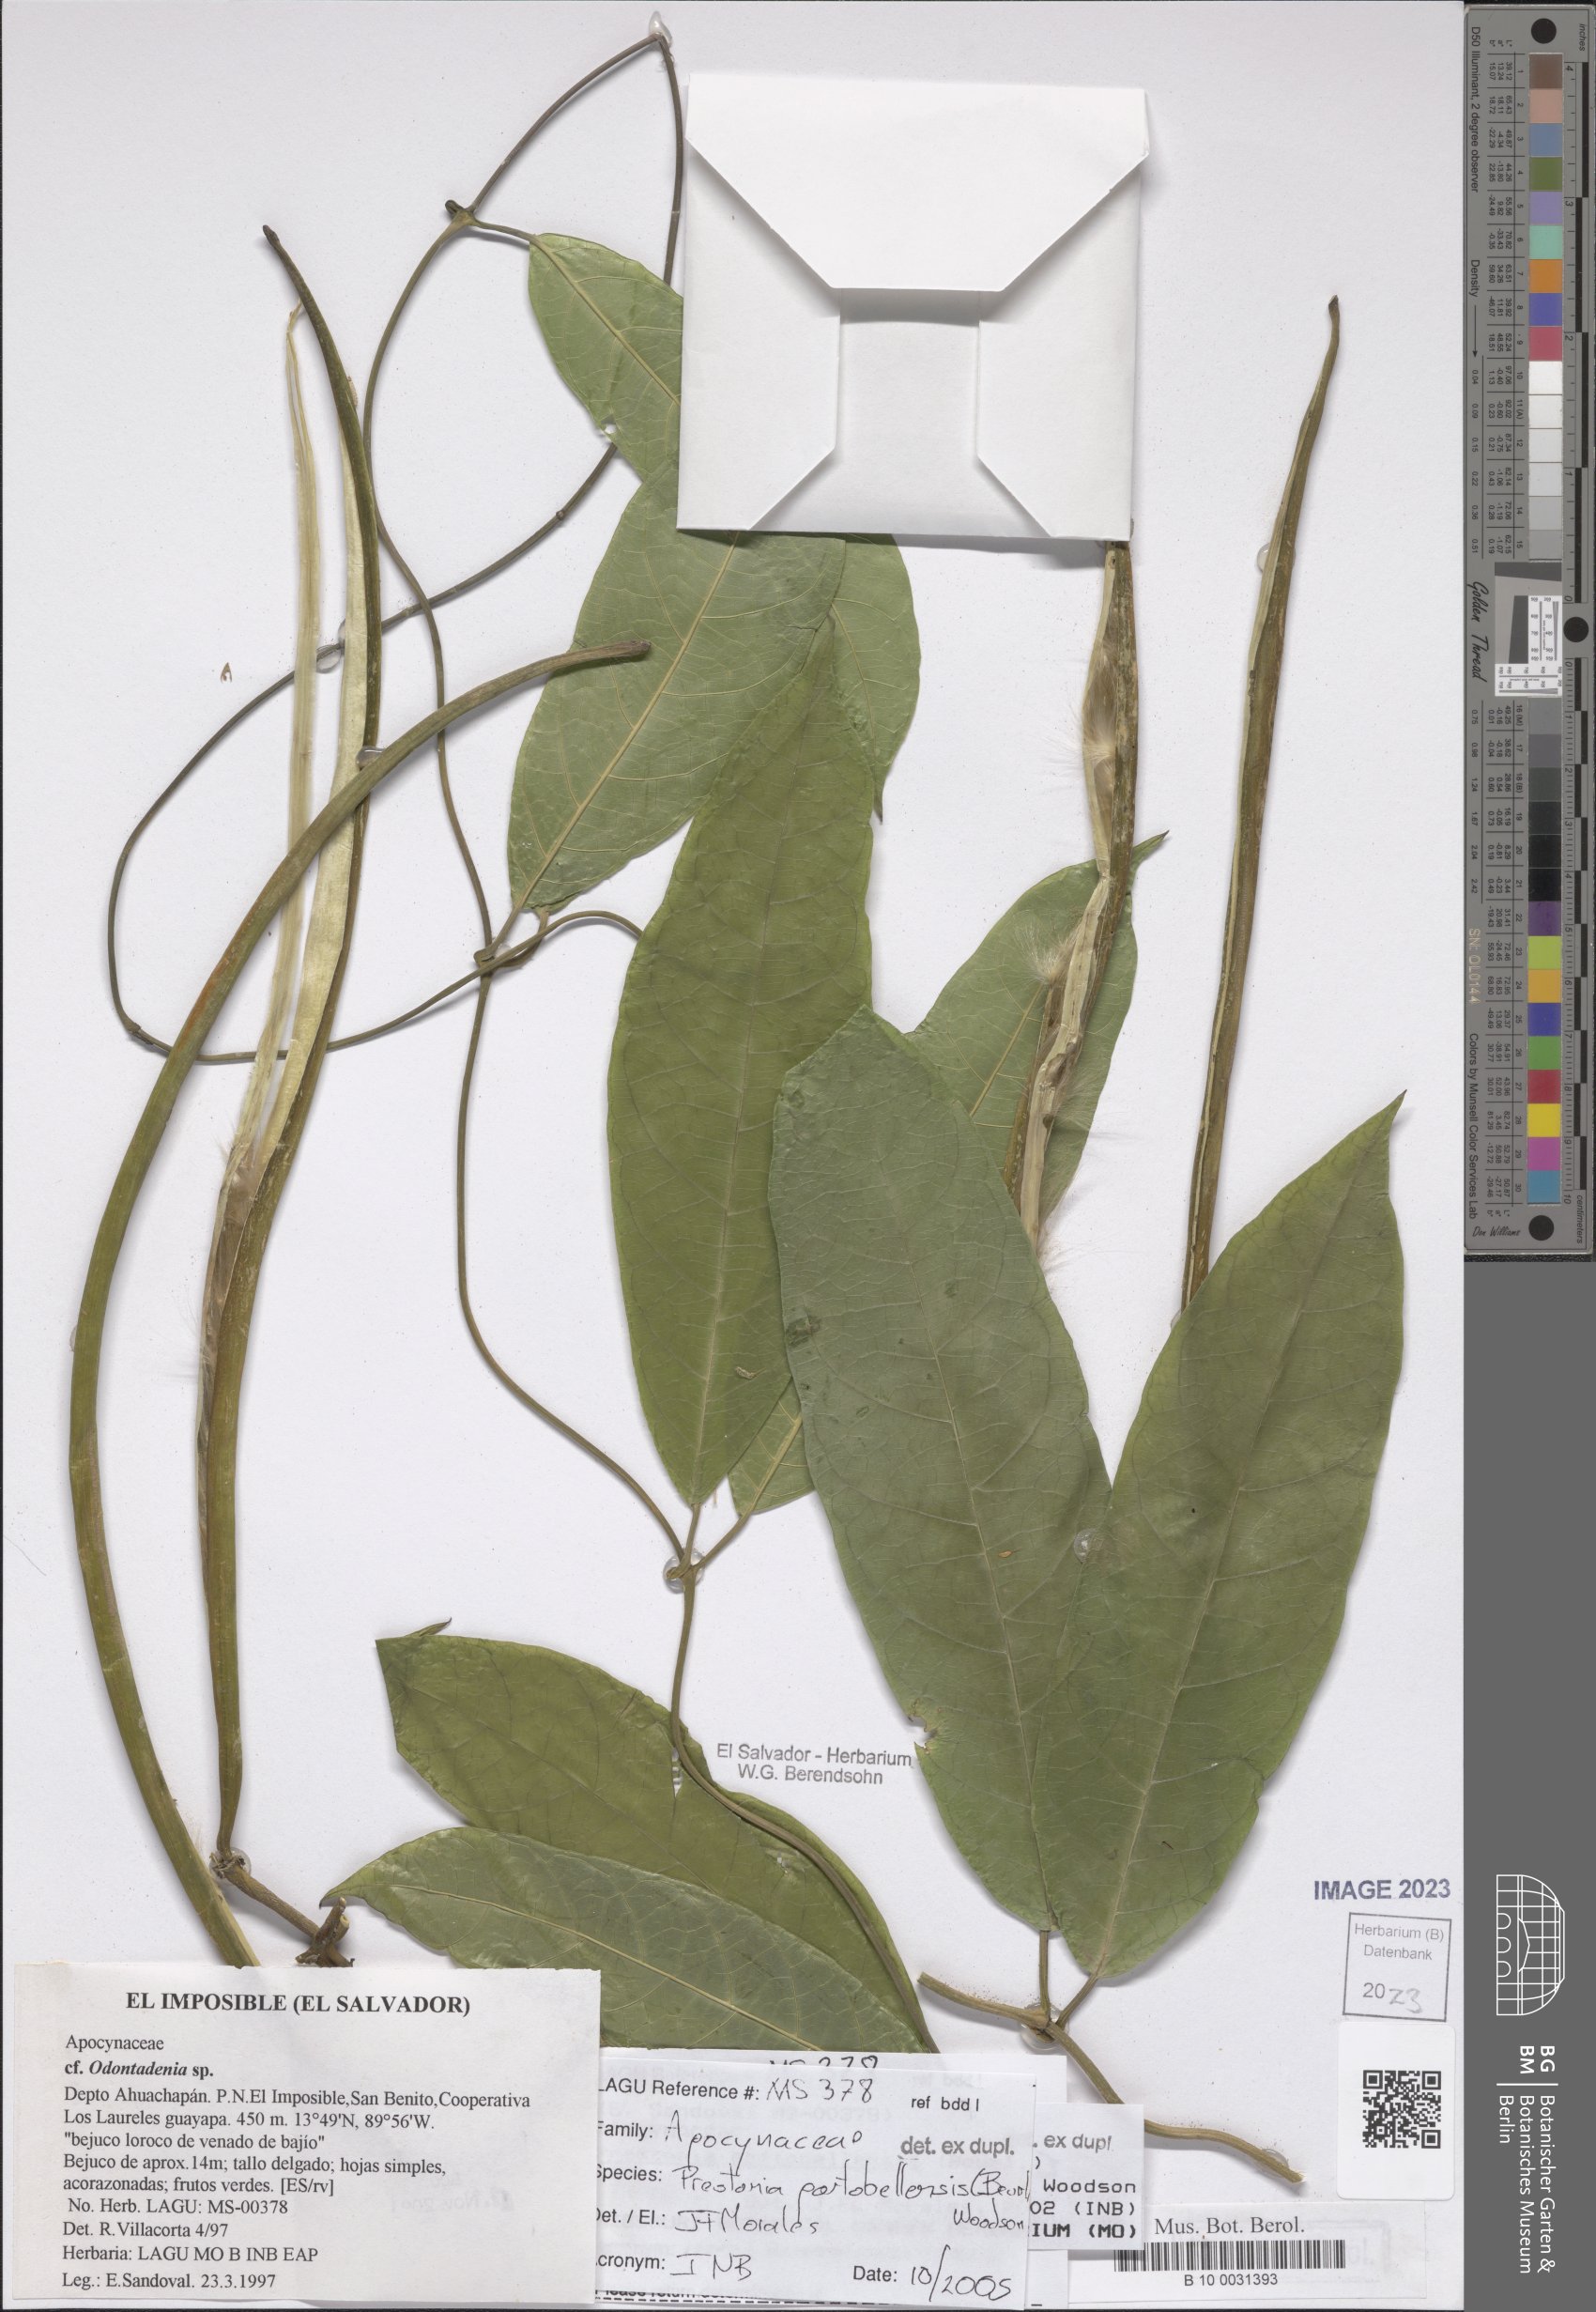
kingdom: Plantae
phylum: Tracheophyta
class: Magnoliopsida
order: Gentianales
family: Apocynaceae
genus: Prestonia
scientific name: Prestonia portobellensis
